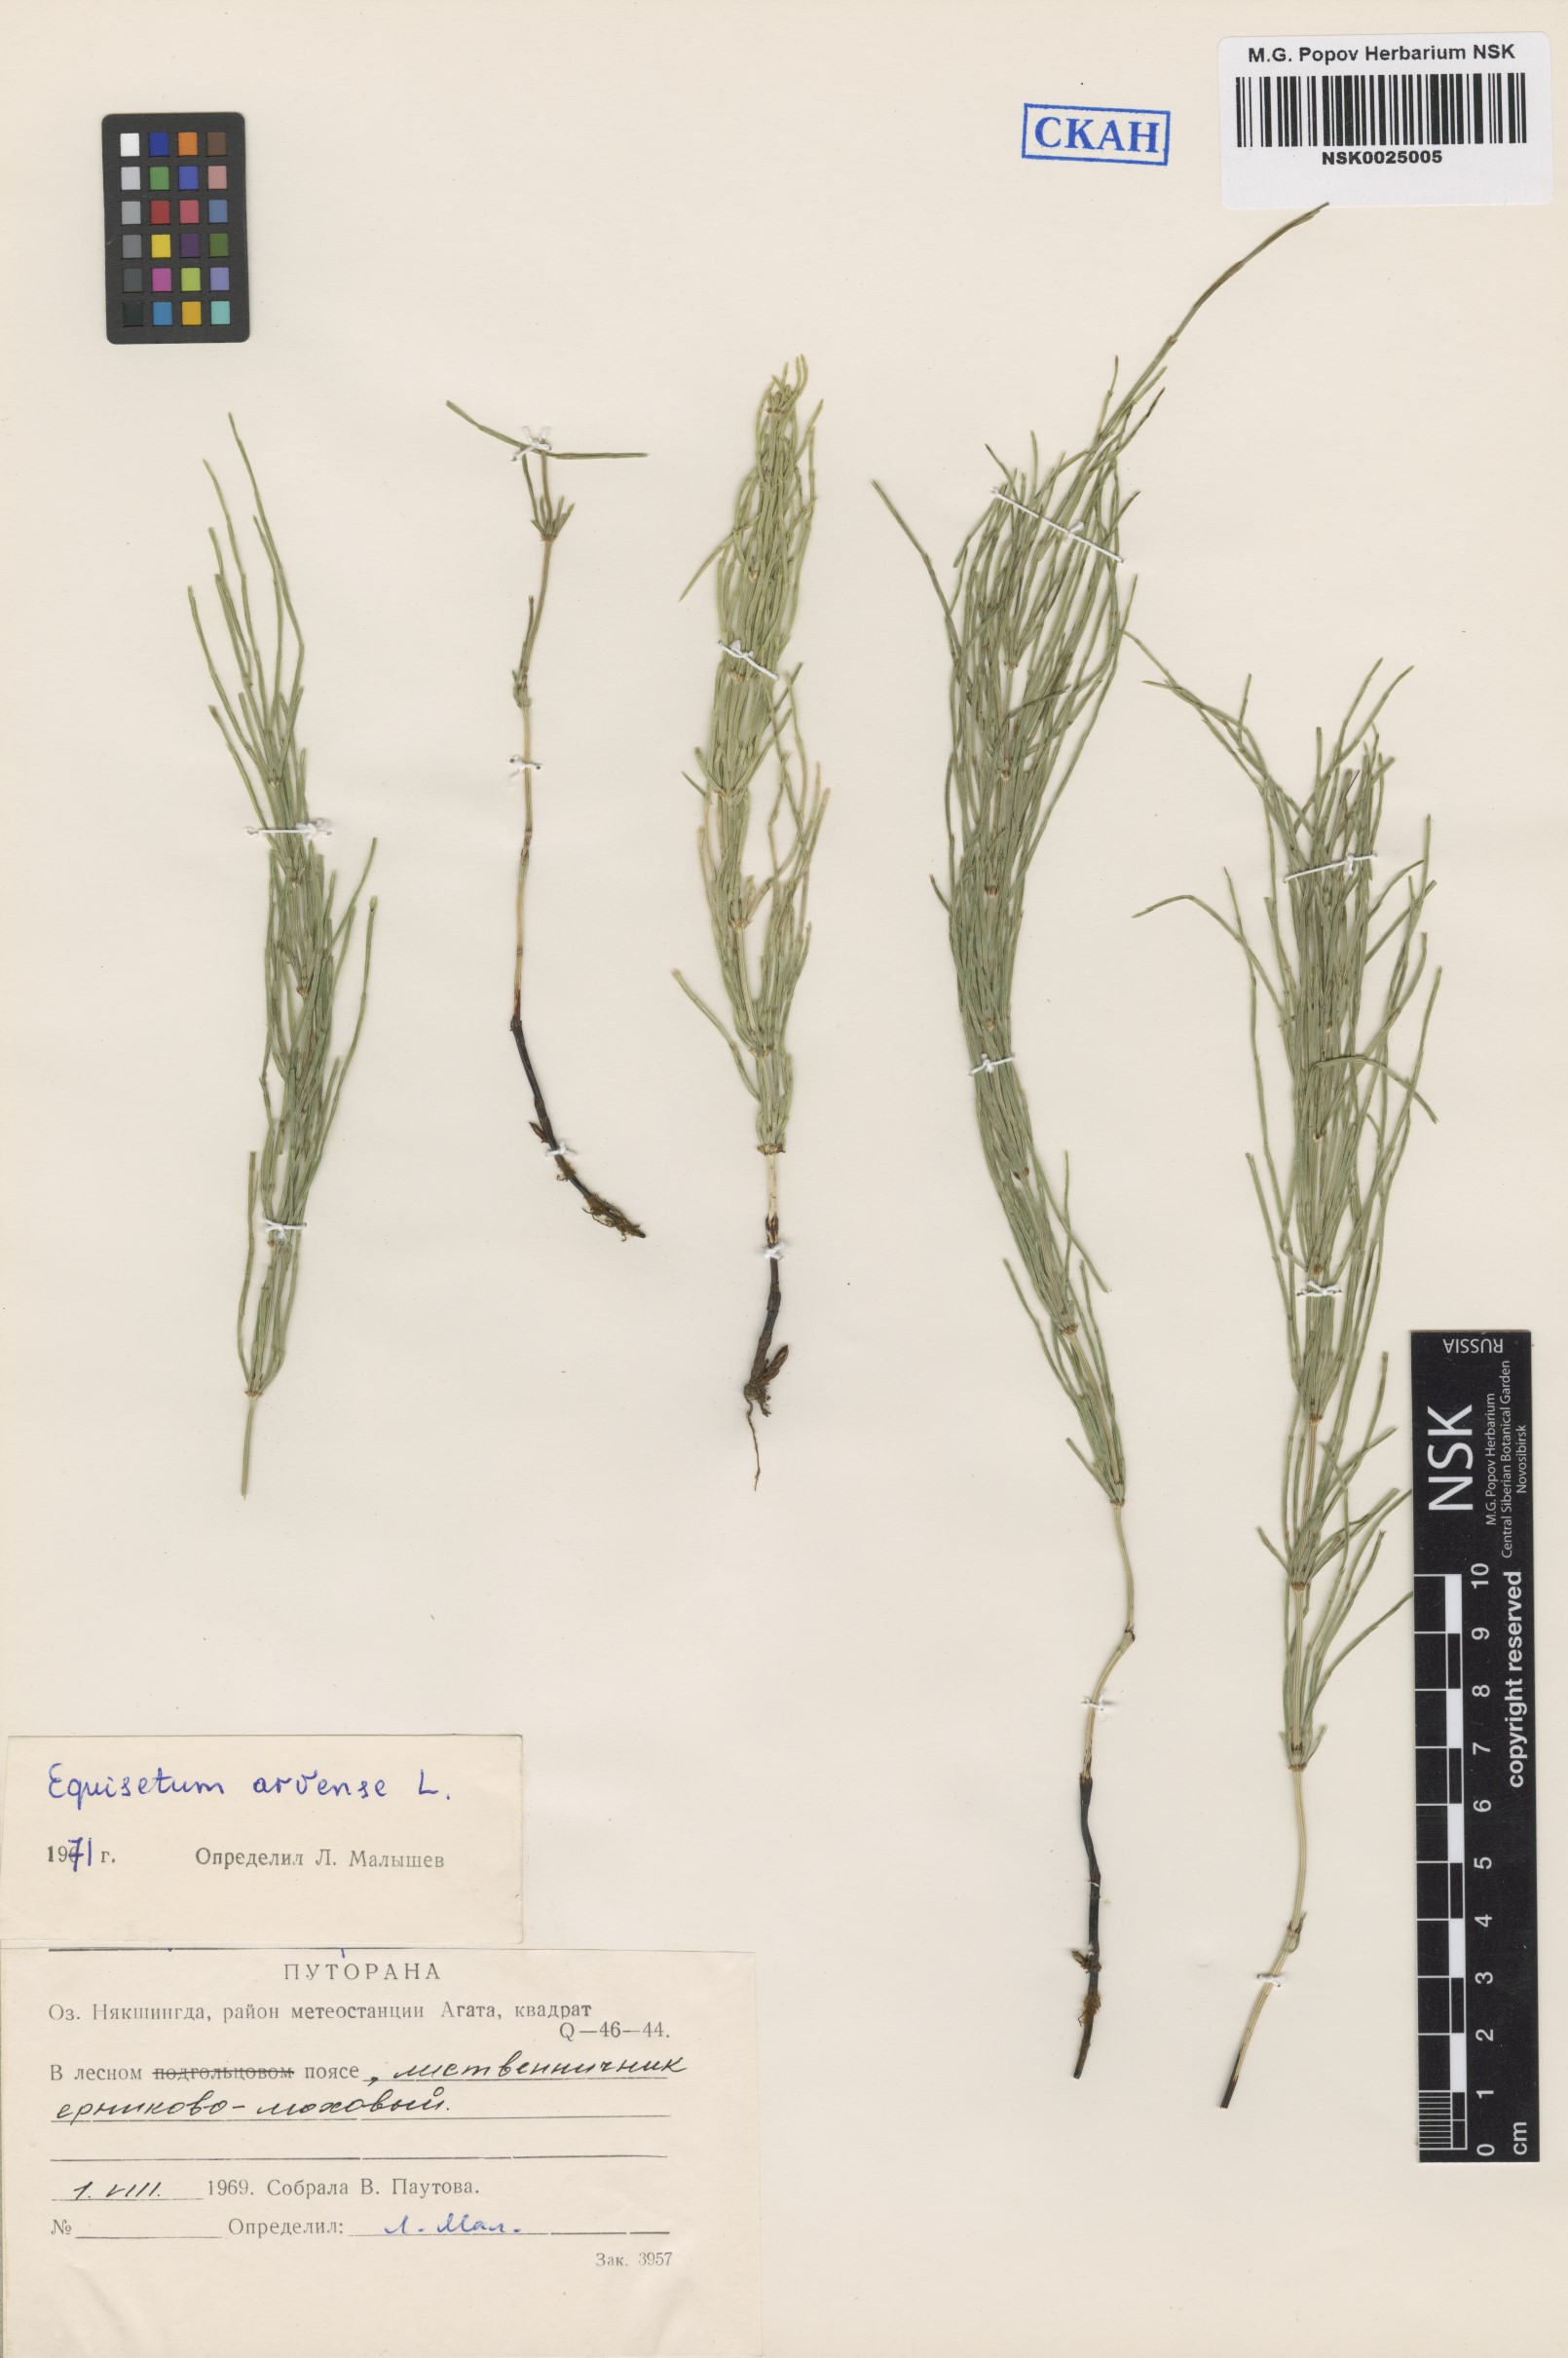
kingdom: Plantae
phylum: Tracheophyta
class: Polypodiopsida
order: Equisetales
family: Equisetaceae
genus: Equisetum
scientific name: Equisetum arvense
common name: Field horsetail
